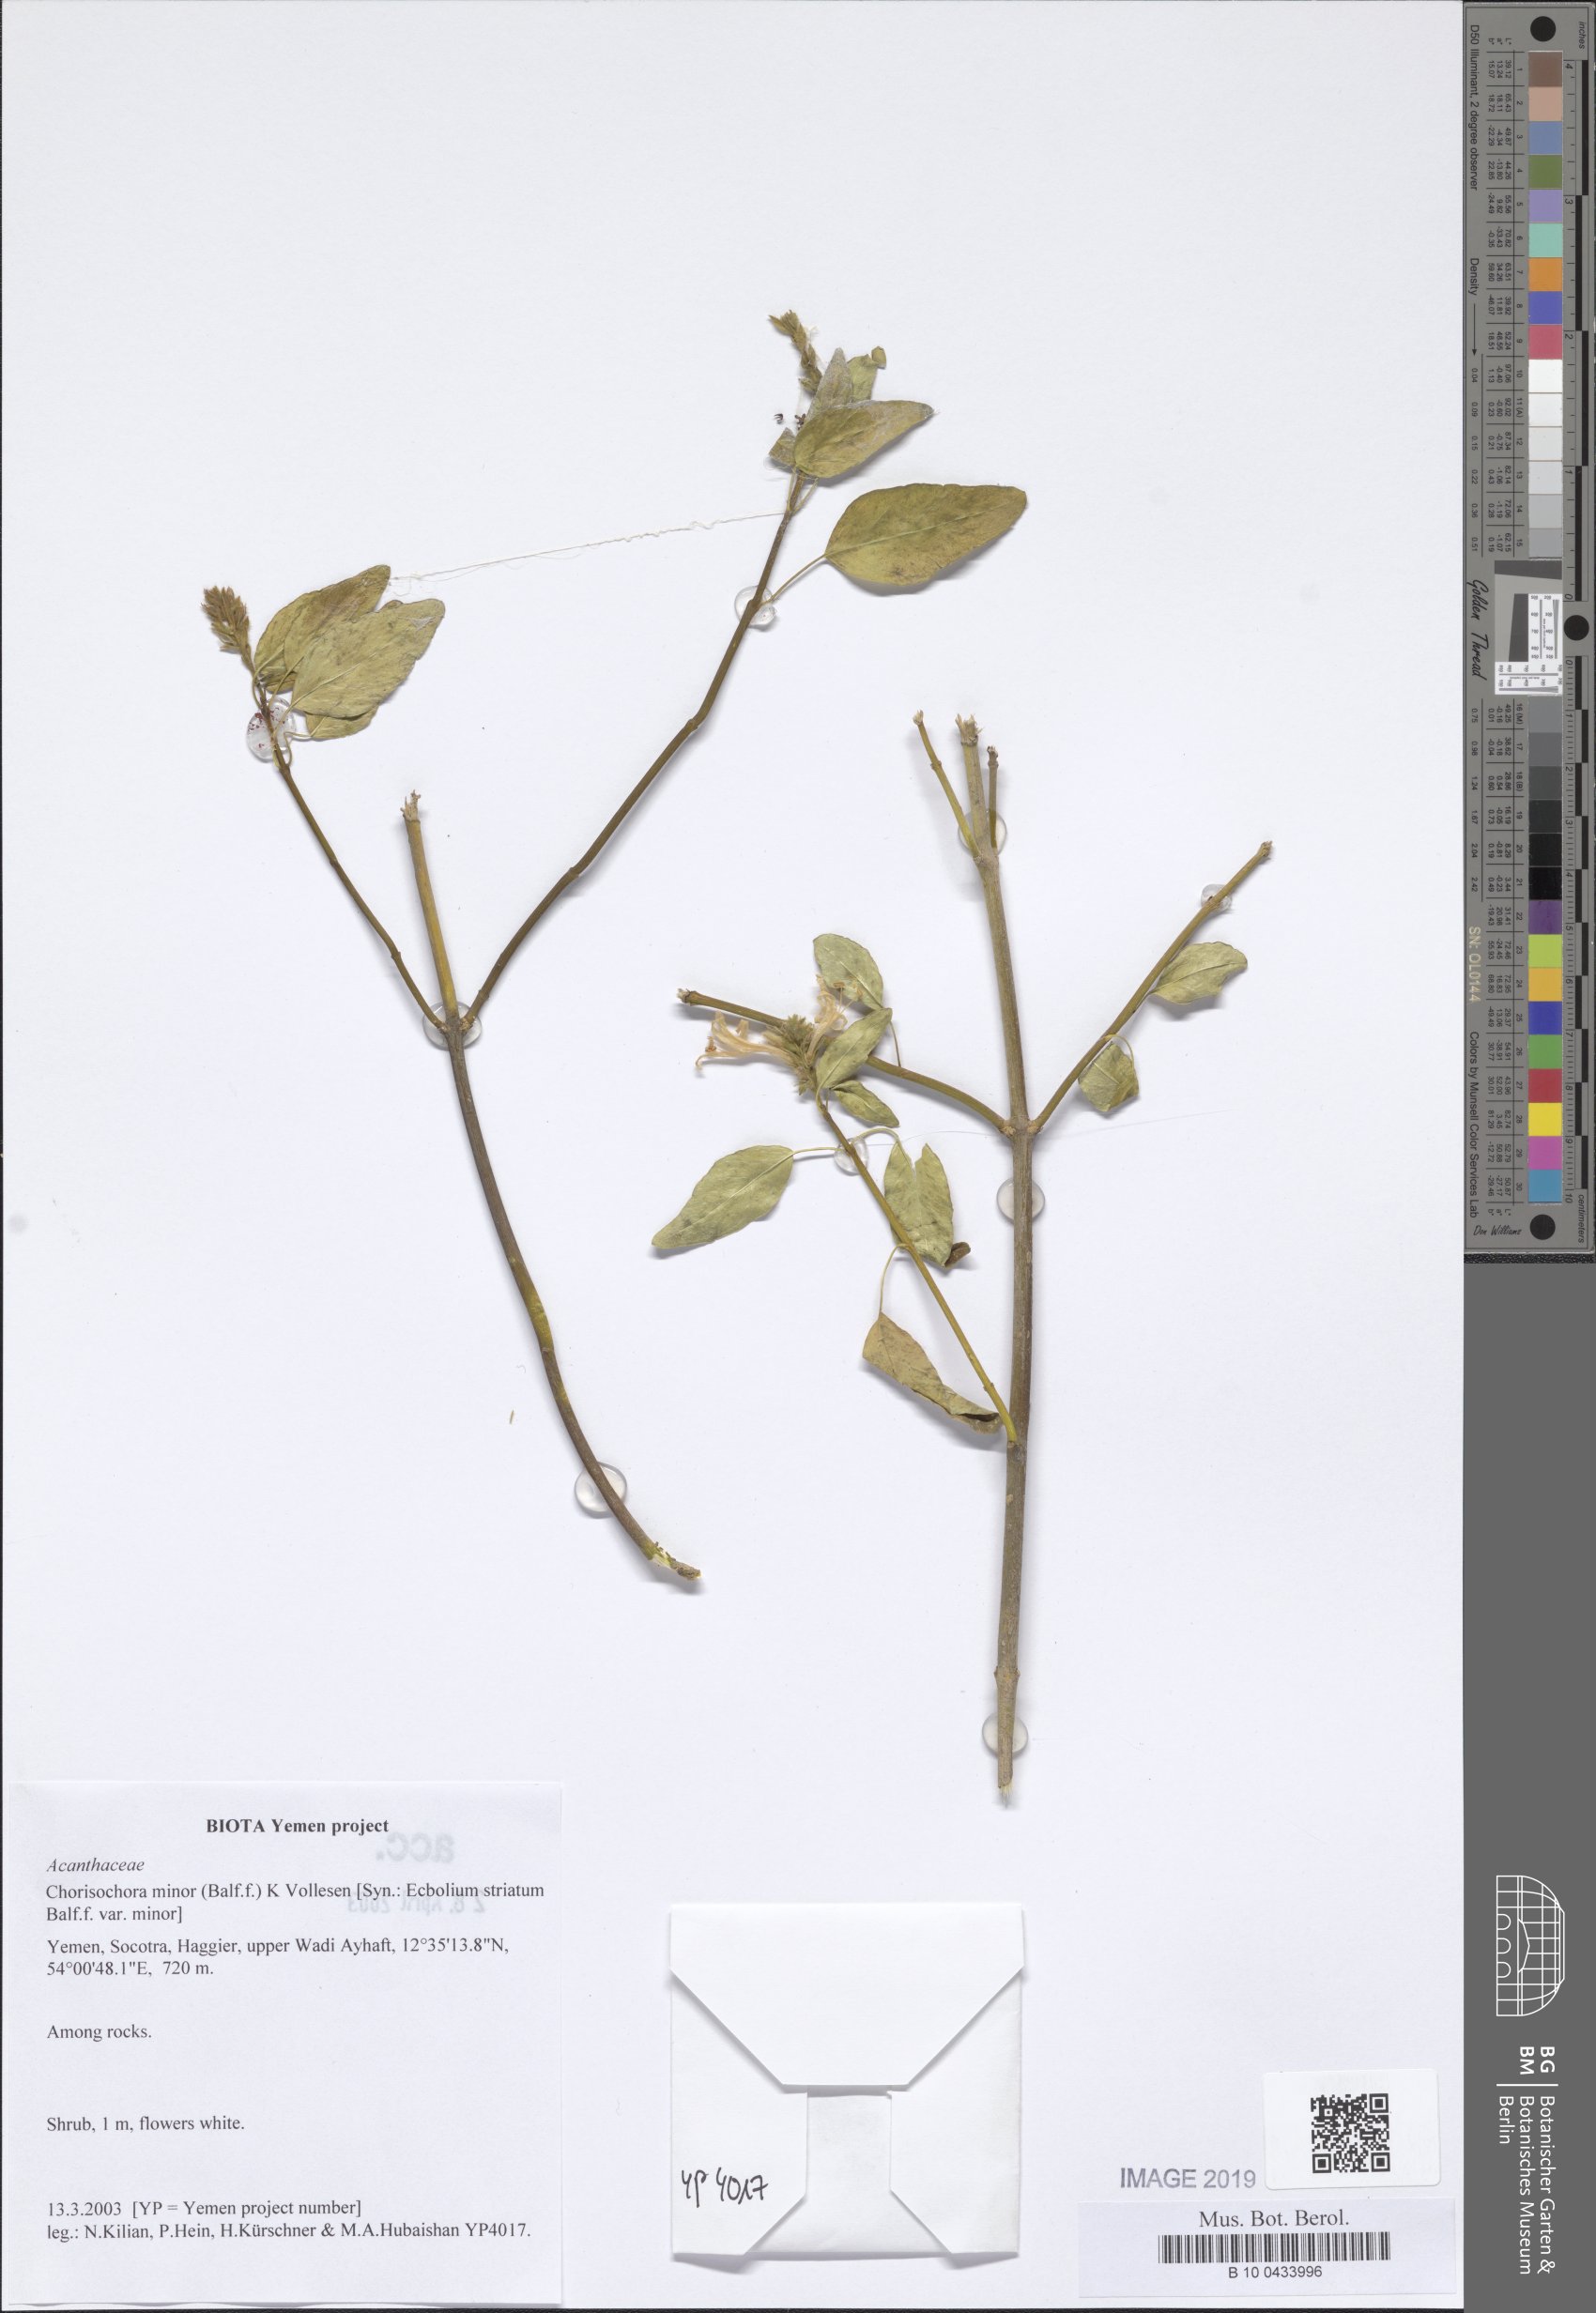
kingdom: Plantae
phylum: Tracheophyta
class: Magnoliopsida
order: Lamiales
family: Acanthaceae
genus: Chorisochora
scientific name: Chorisochora minor
